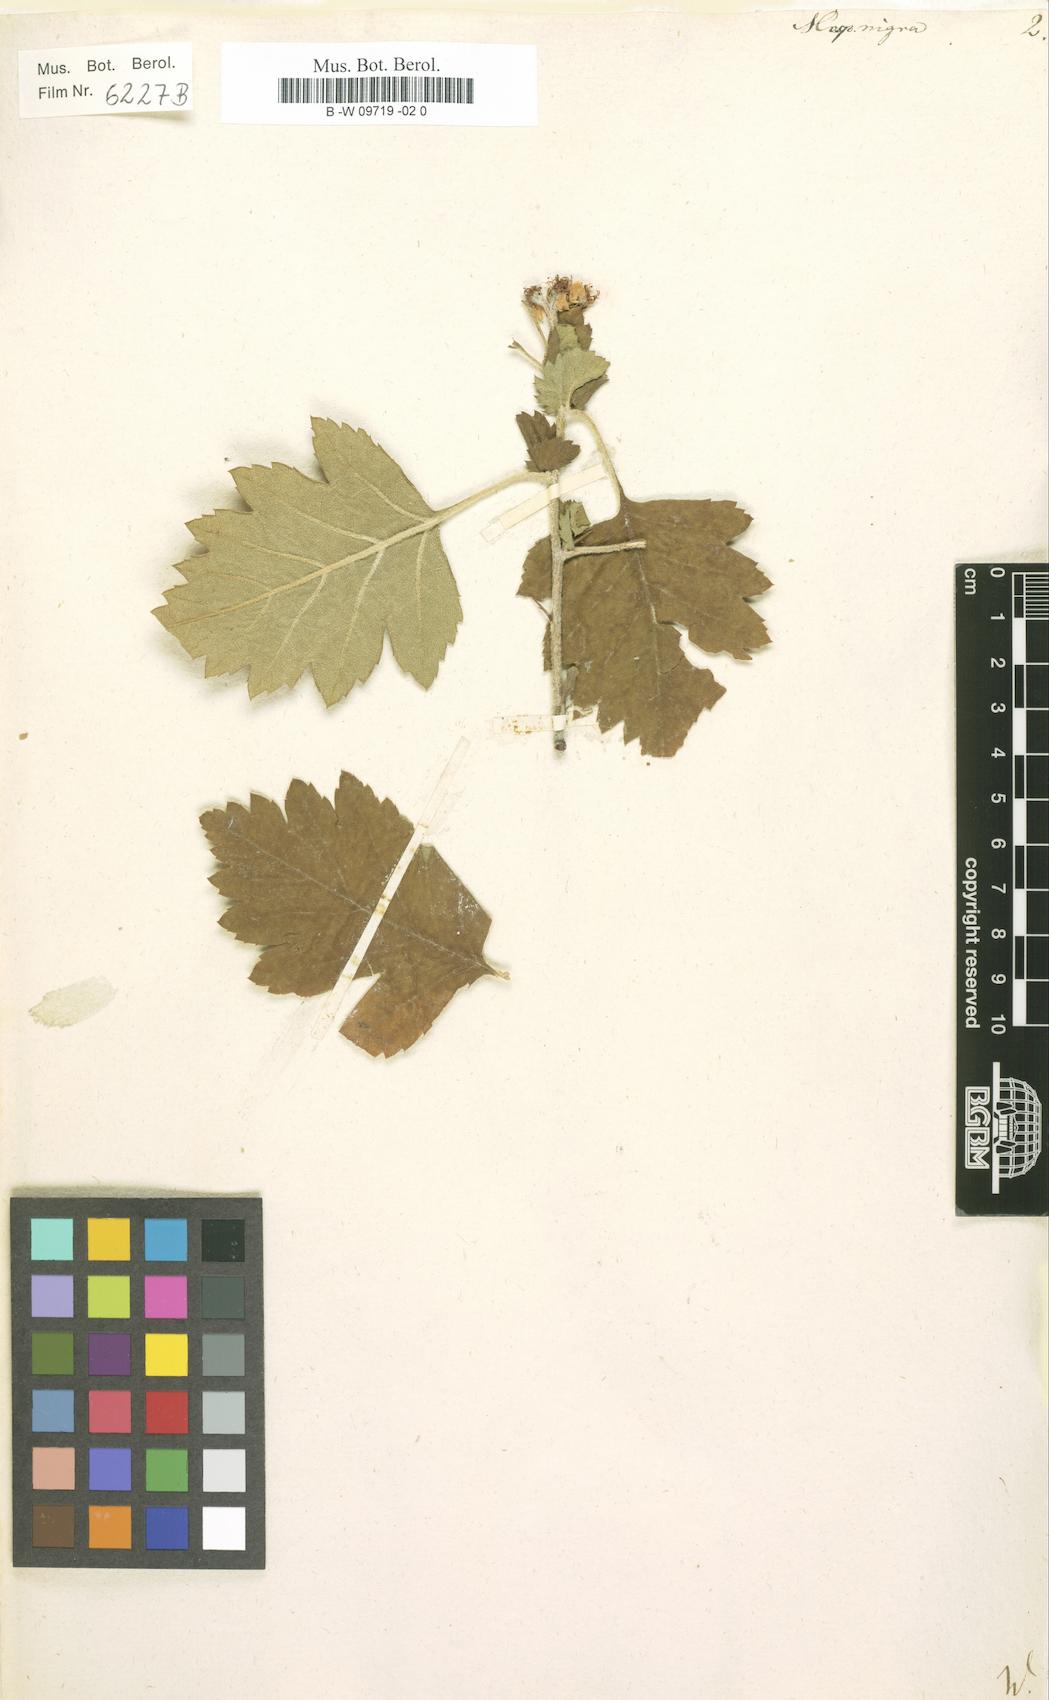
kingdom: Plantae
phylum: Tracheophyta
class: Magnoliopsida
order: Rosales
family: Rosaceae
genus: Crataegus
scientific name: Crataegus nigra
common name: Hungarian thorn
